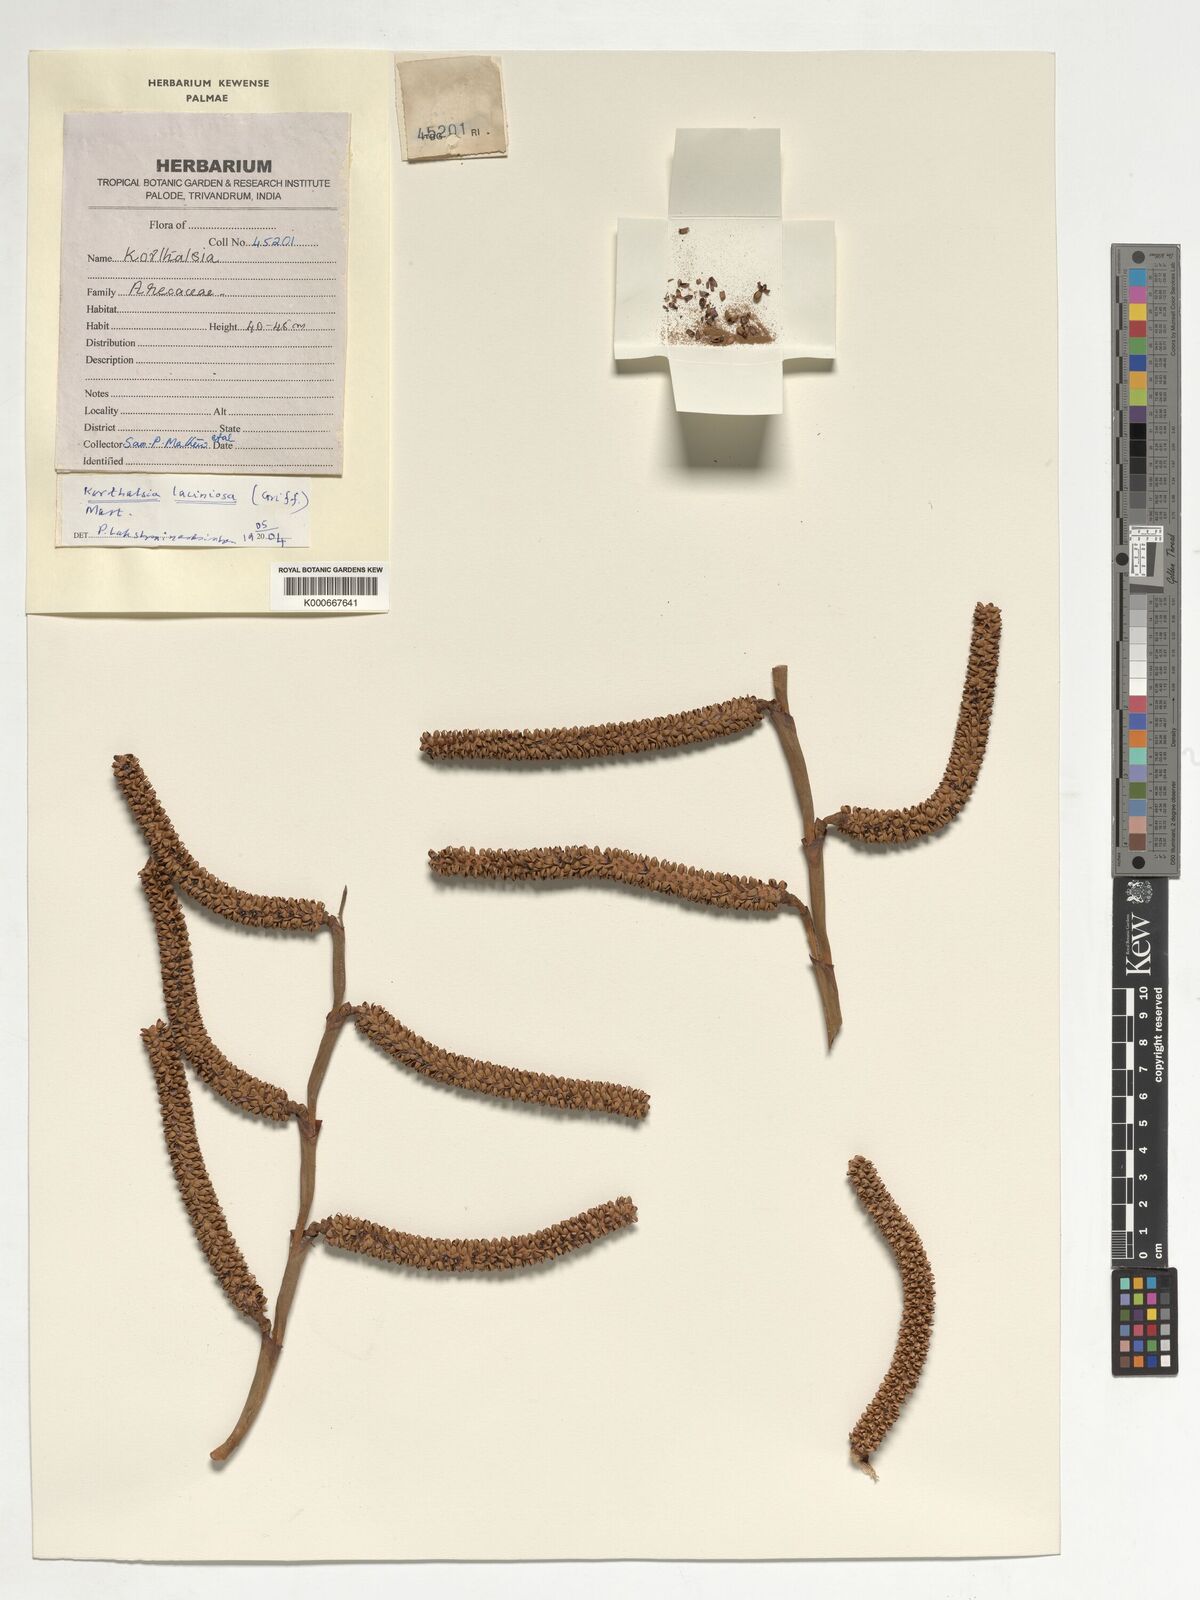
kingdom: Plantae
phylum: Tracheophyta
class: Liliopsida
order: Arecales
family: Arecaceae
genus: Korthalsia
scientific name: Korthalsia laciniosa
